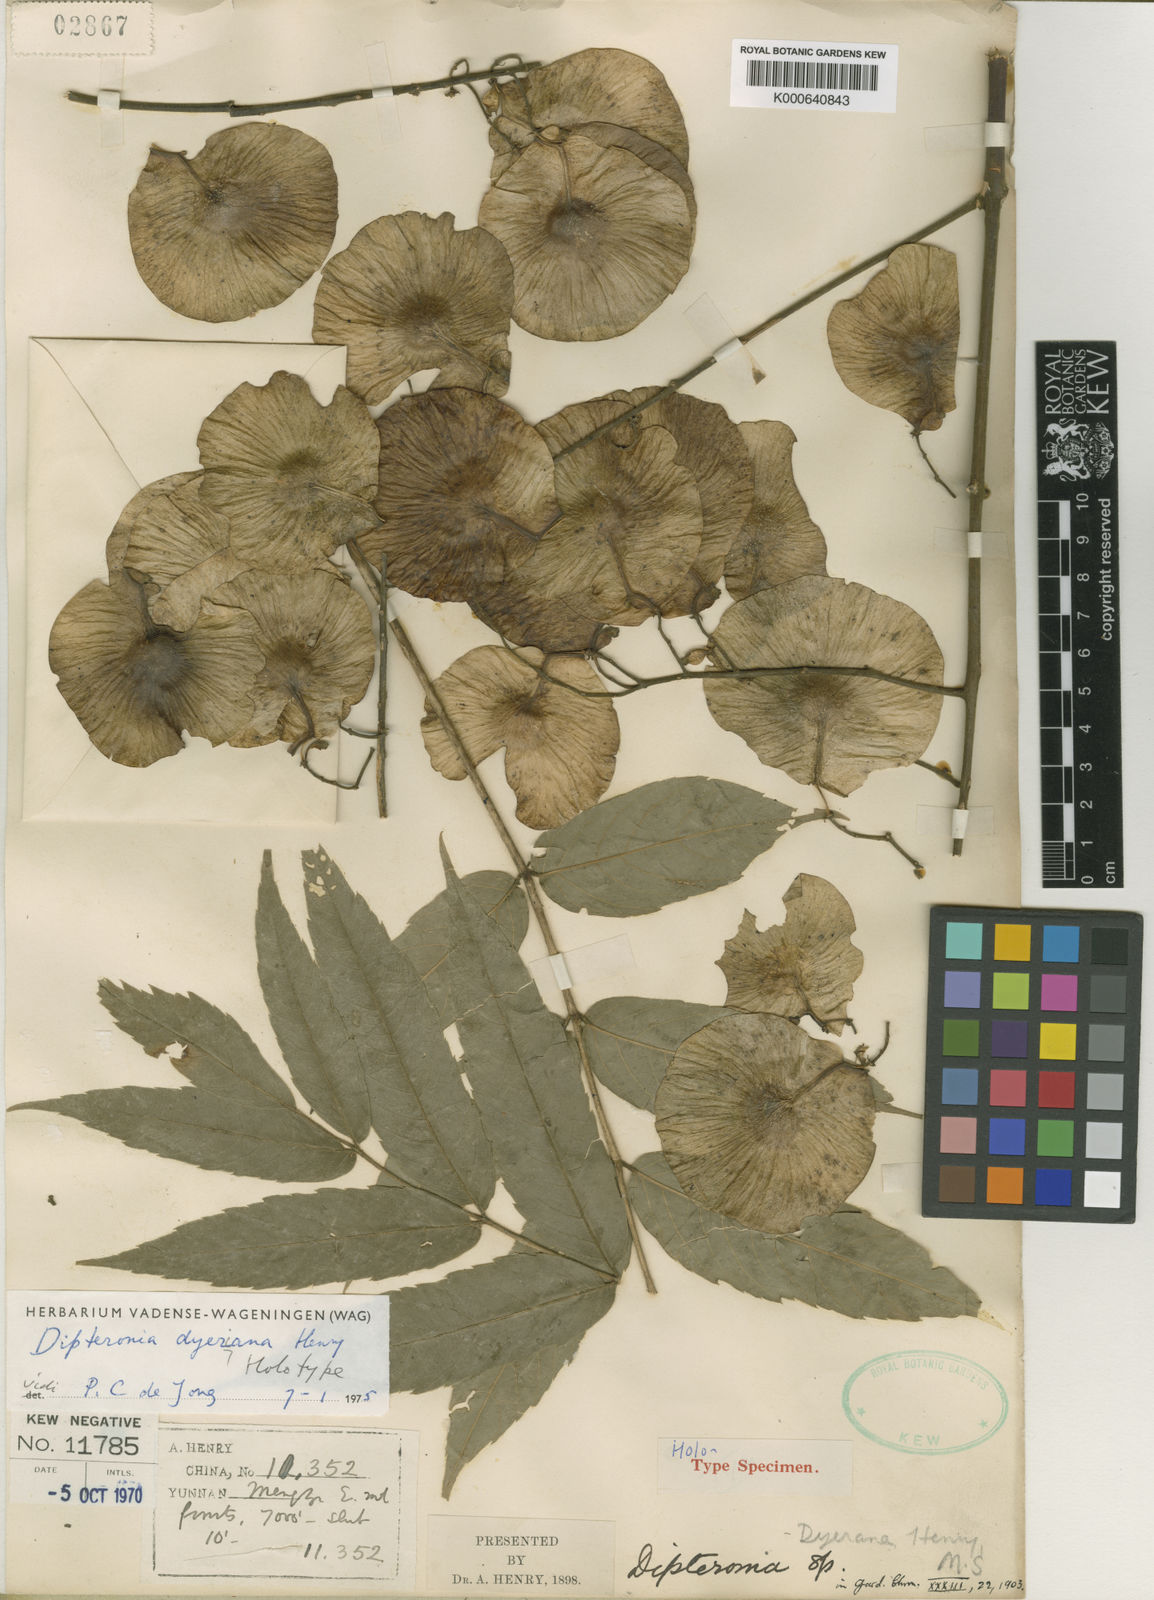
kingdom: Plantae
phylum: Tracheophyta
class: Magnoliopsida
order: Sapindales
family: Sapindaceae
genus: Dipteronia
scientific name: Dipteronia dyeriana
